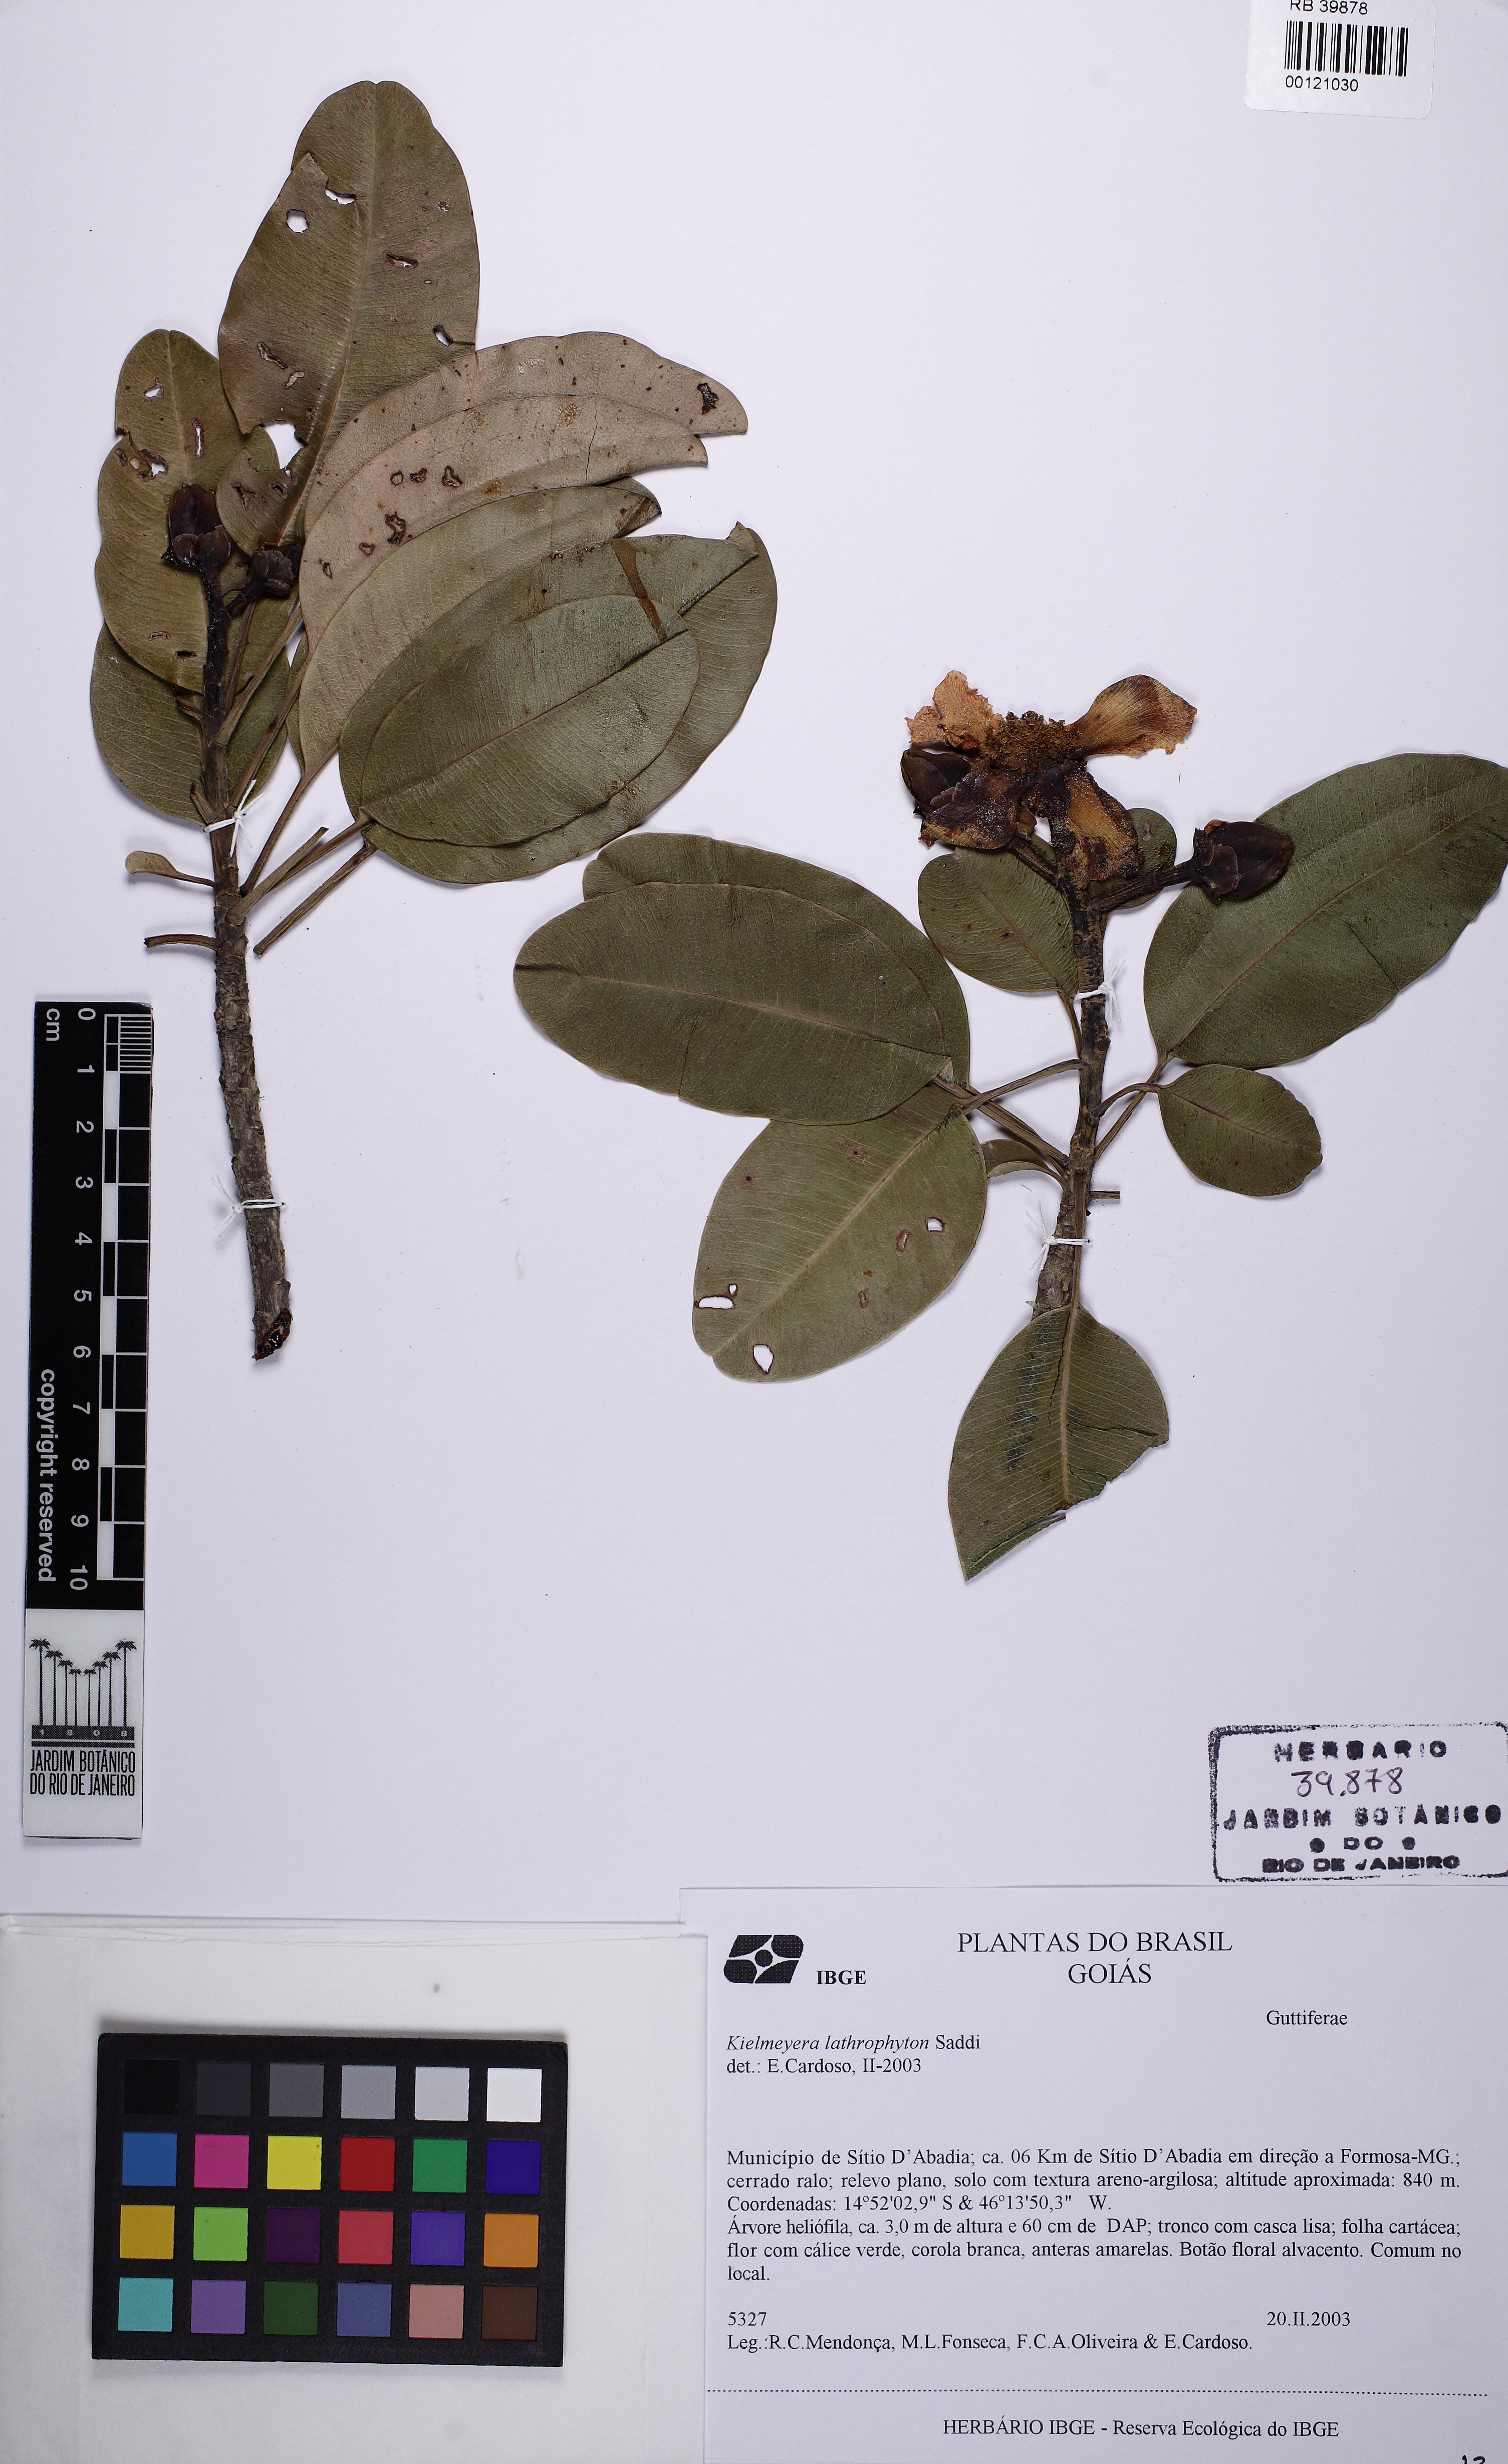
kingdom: Plantae
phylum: Tracheophyta
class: Magnoliopsida
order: Malpighiales
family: Calophyllaceae
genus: Kielmeyera
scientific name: Kielmeyera lathrophyton
